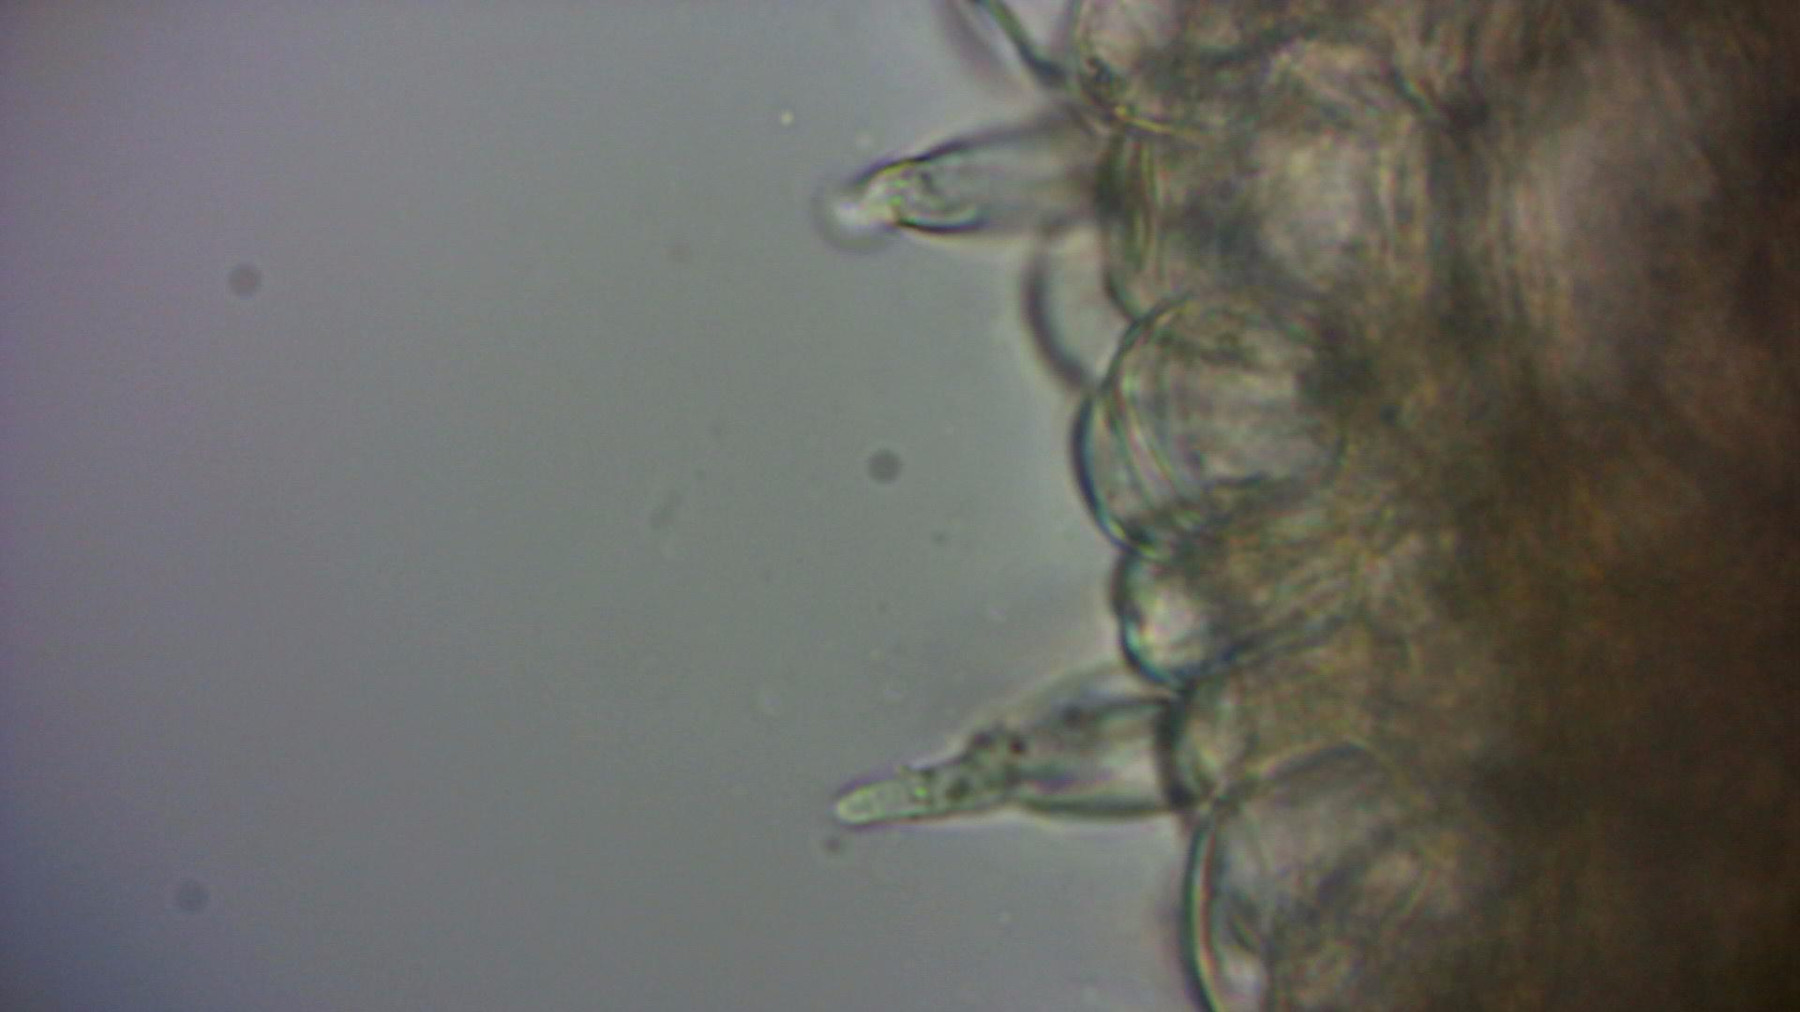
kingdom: Fungi
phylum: Basidiomycota
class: Agaricomycetes
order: Agaricales
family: Psathyrellaceae
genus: Coprinellus
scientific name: Coprinellus
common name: blækhat
